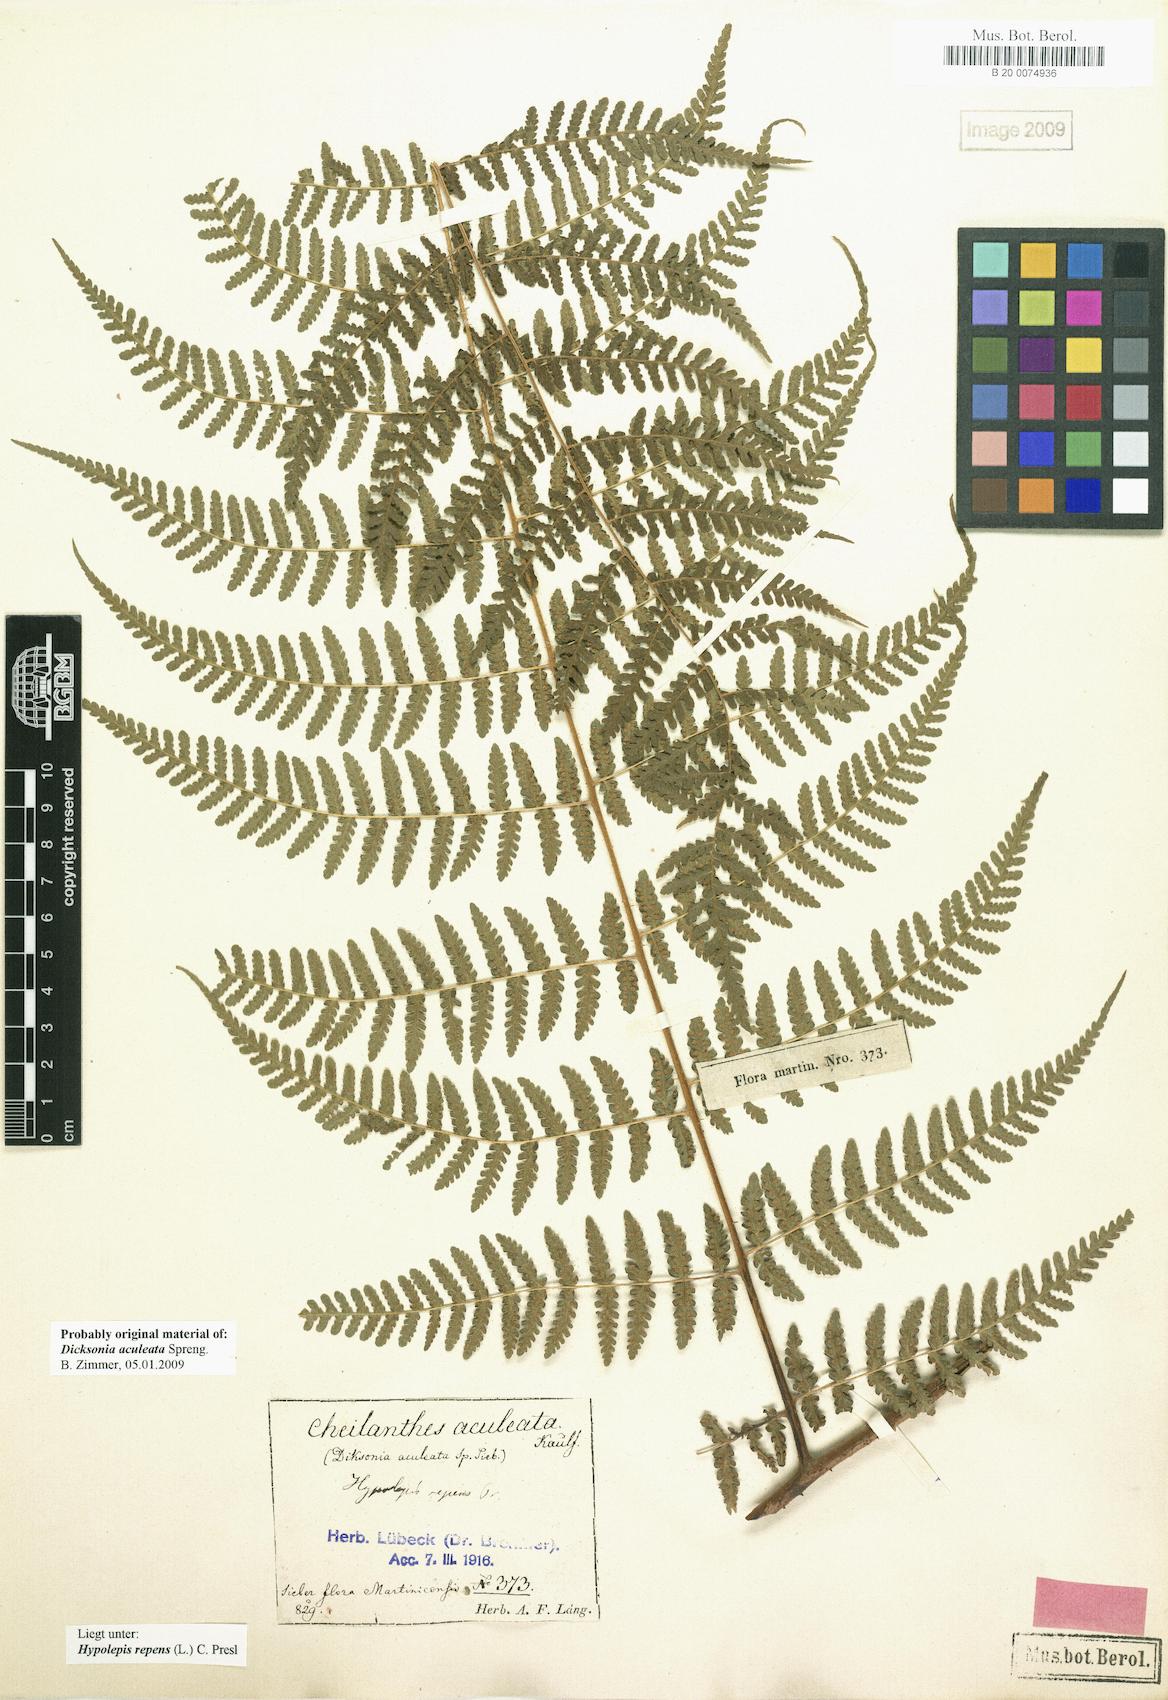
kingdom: Plantae
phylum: Tracheophyta
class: Polypodiopsida
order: Polypodiales
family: Dennstaedtiaceae
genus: Hypolepis
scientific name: Hypolepis repens
